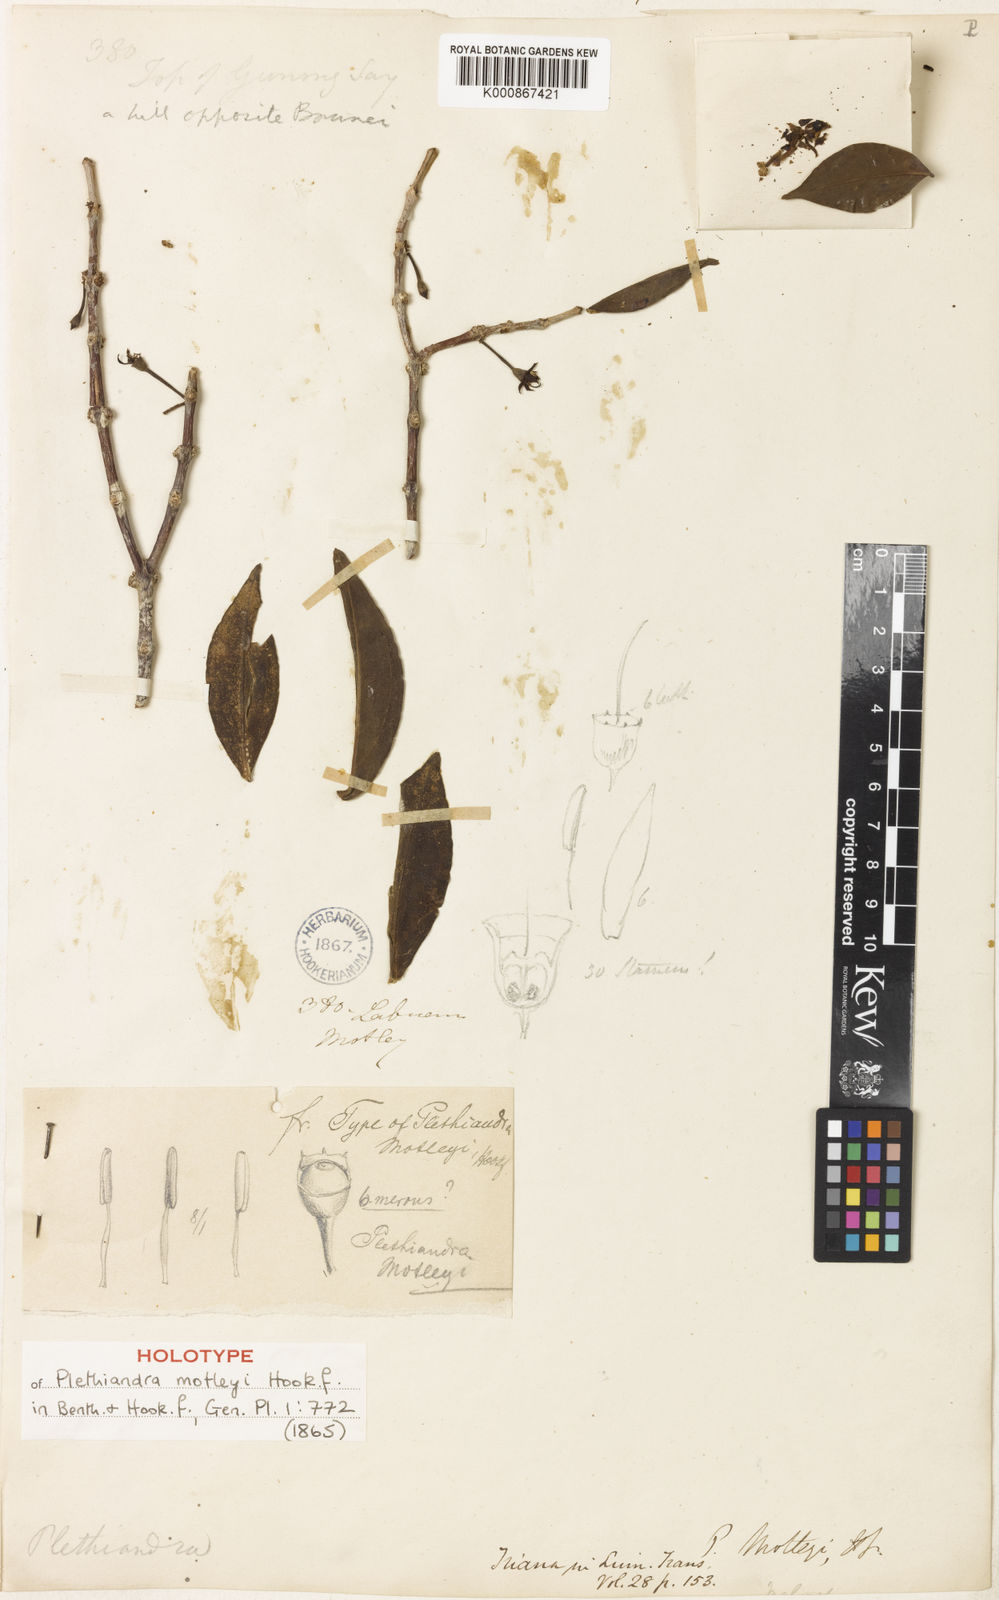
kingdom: Plantae
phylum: Tracheophyta
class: Magnoliopsida
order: Myrtales
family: Melastomataceae
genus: Plethiandra
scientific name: Plethiandra motleyi
